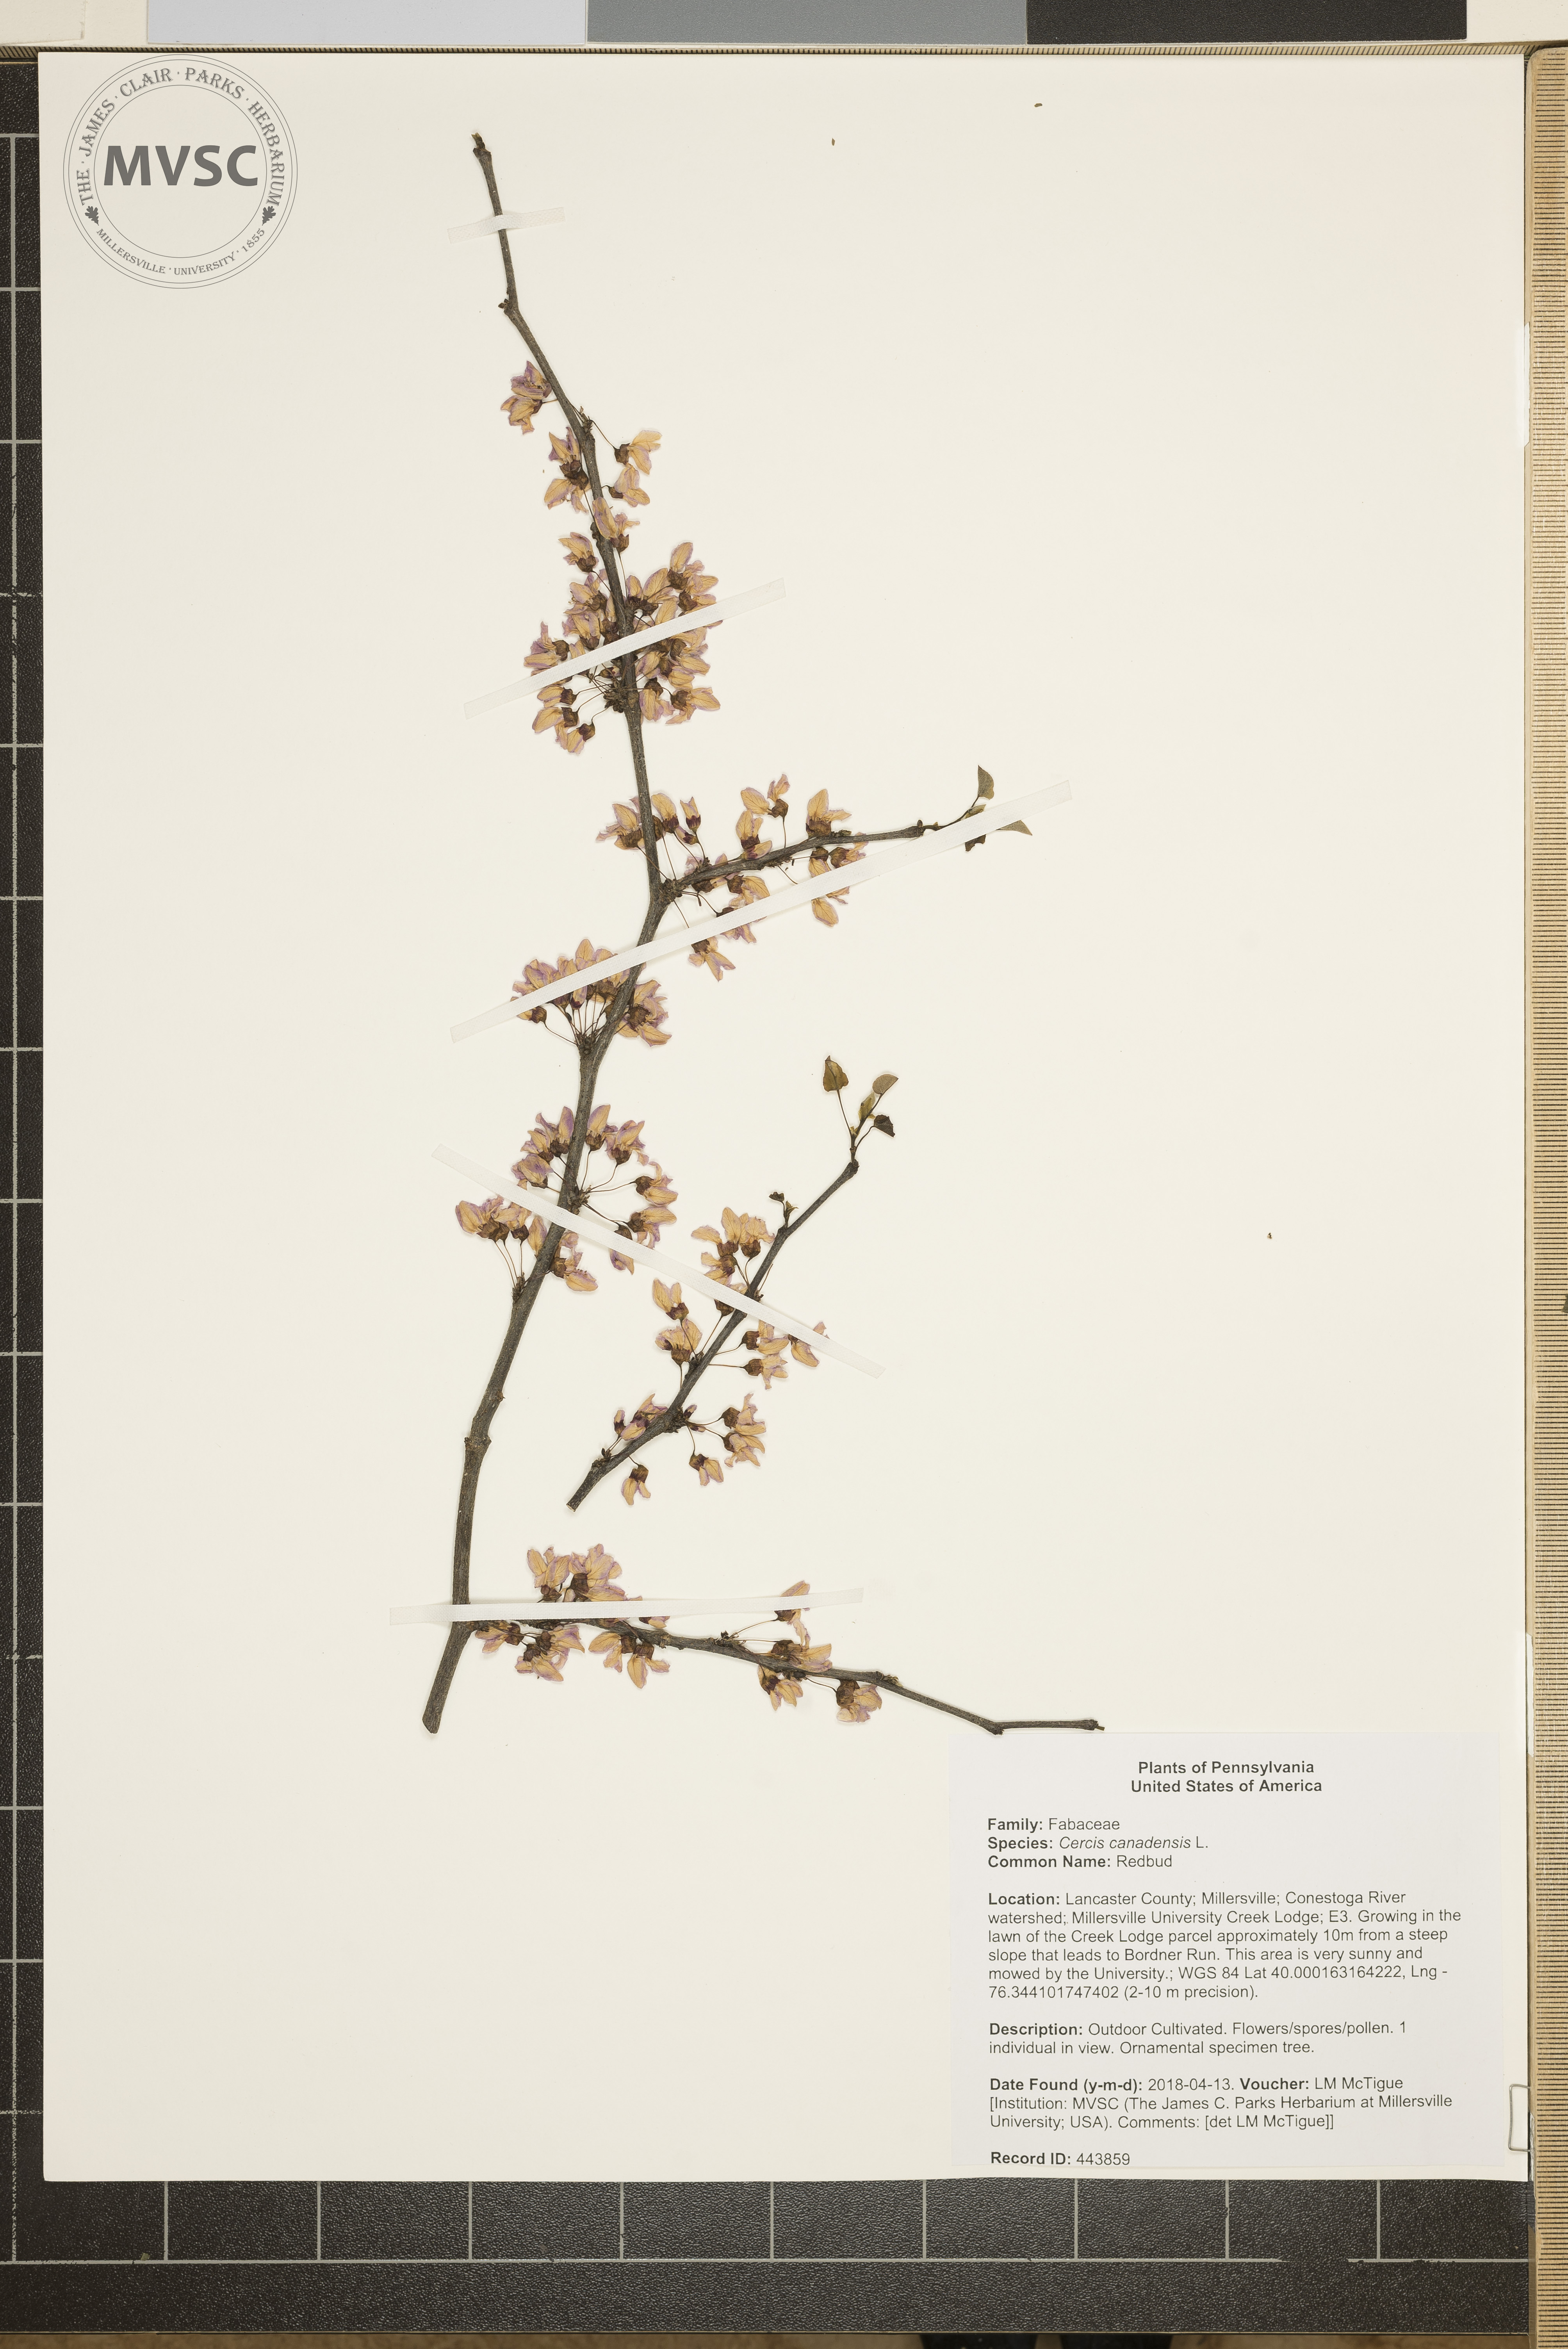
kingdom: Plantae
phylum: Tracheophyta
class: Magnoliopsida
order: Fabales
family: Fabaceae
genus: Cercis
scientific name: Cercis canadensis
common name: Redbud
